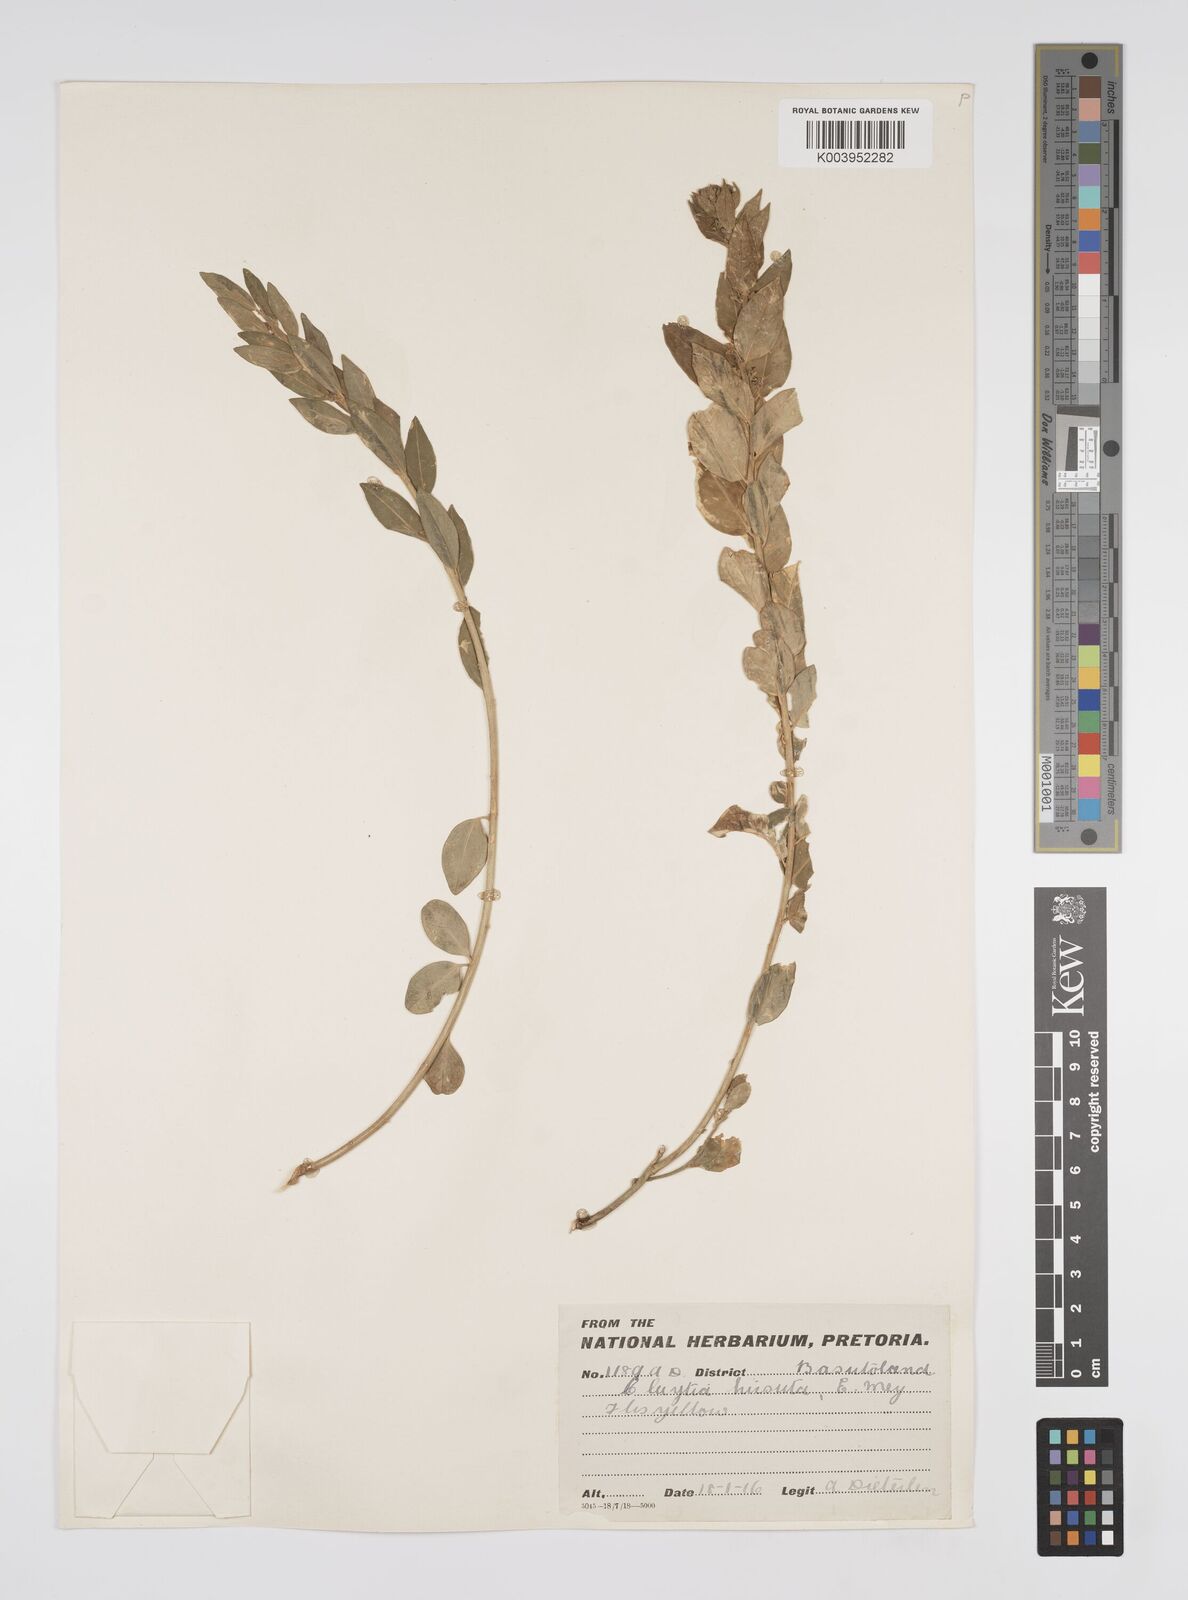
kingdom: Plantae
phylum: Tracheophyta
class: Magnoliopsida
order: Malpighiales
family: Peraceae
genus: Clutia
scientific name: Clutia affinis
